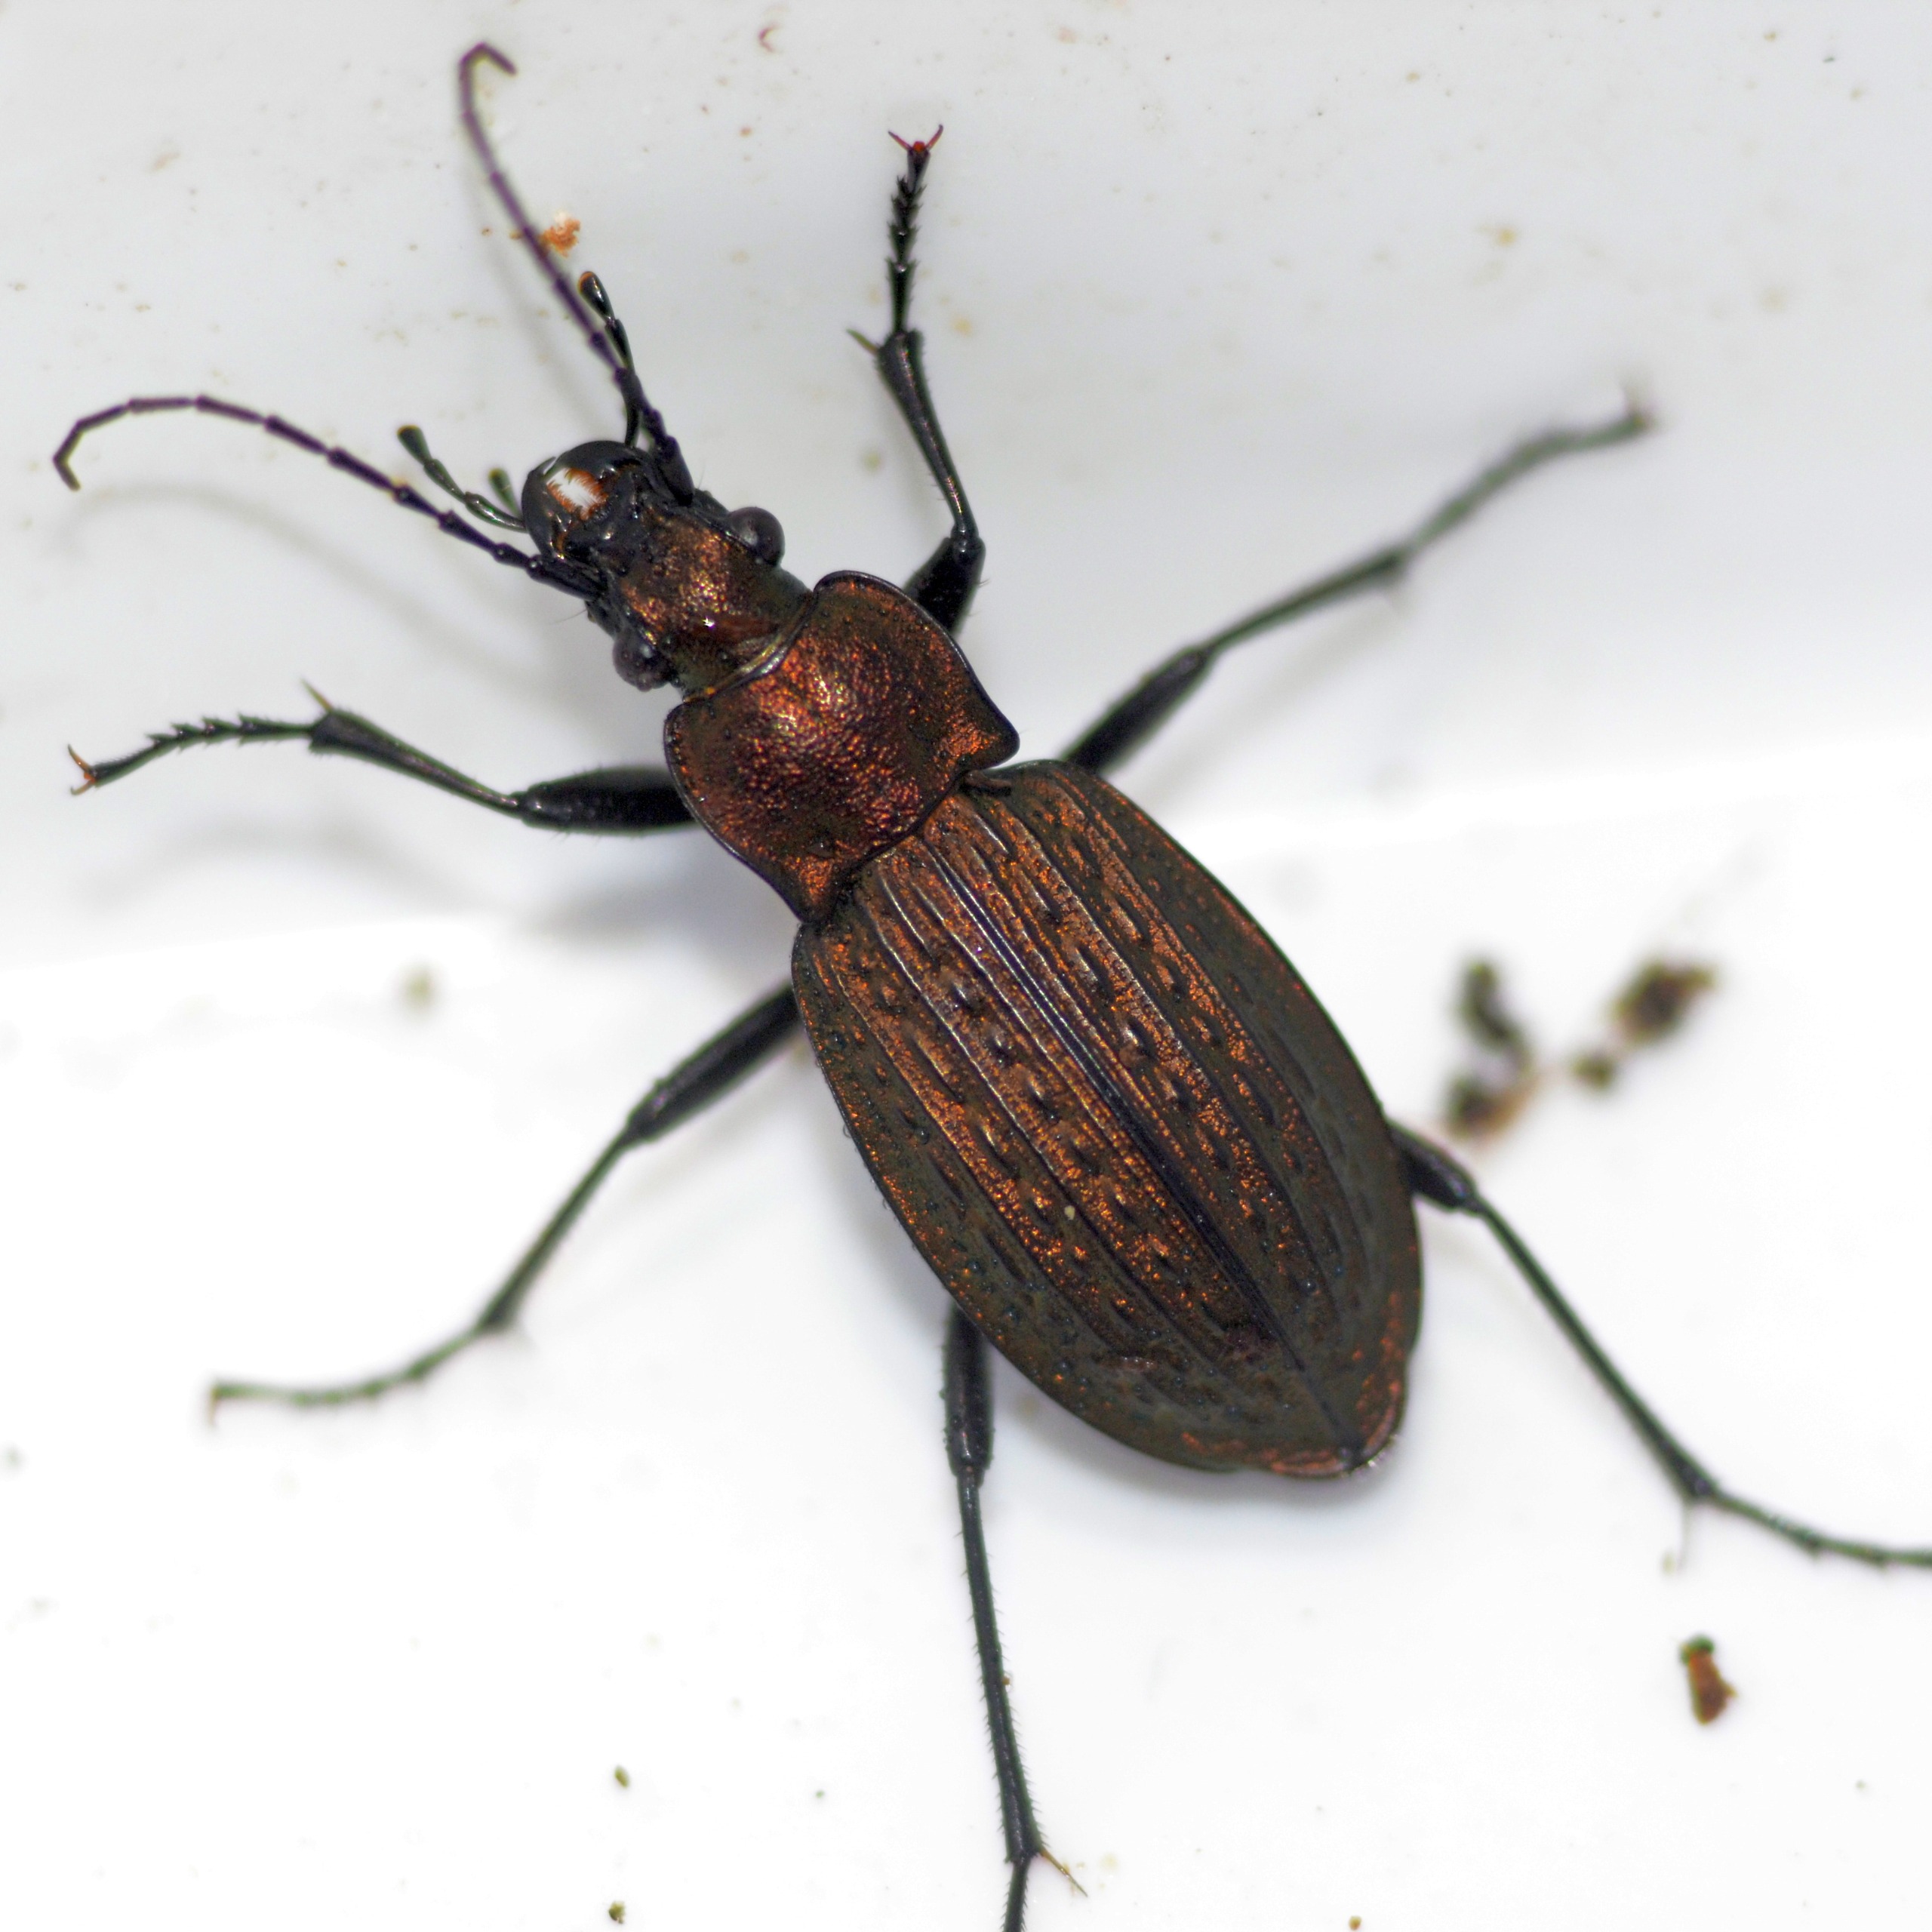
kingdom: Animalia
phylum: Arthropoda
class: Insecta
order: Coleoptera
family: Carabidae
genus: Carabus
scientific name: Carabus granulatus
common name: Kornet løber
